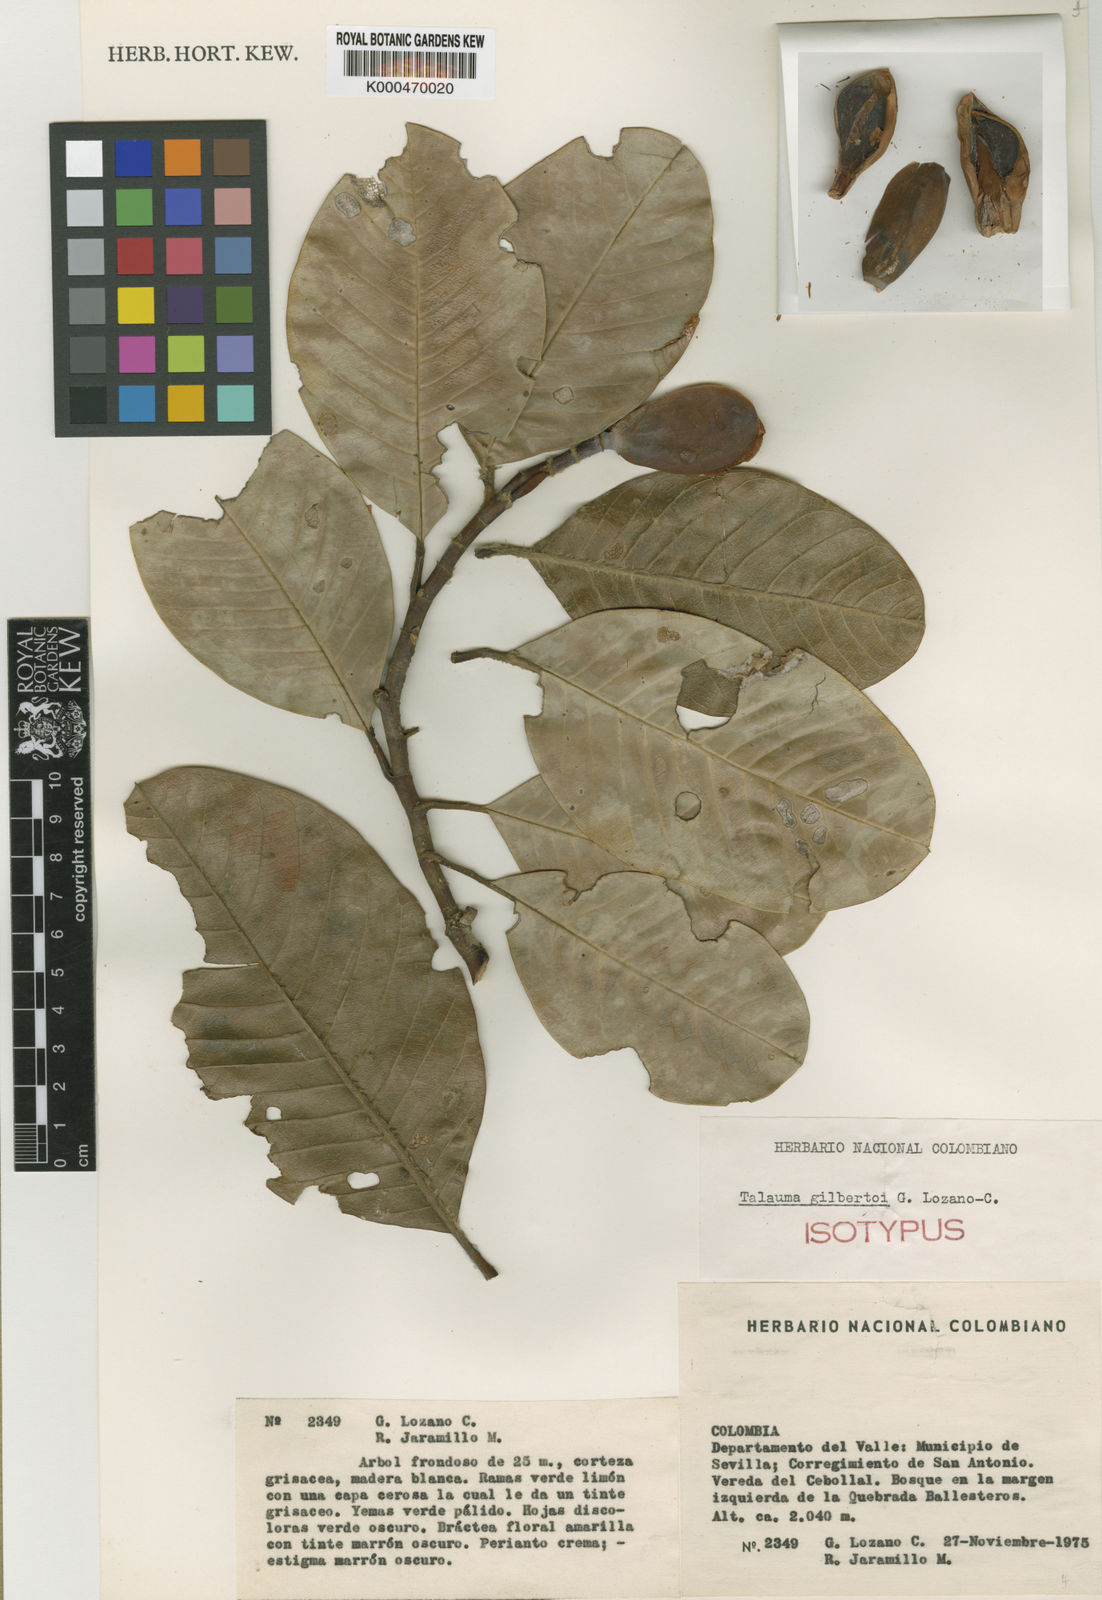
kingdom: Plantae
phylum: Tracheophyta
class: Magnoliopsida
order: Magnoliales
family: Magnoliaceae
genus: Magnolia
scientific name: Magnolia gilbertoi
